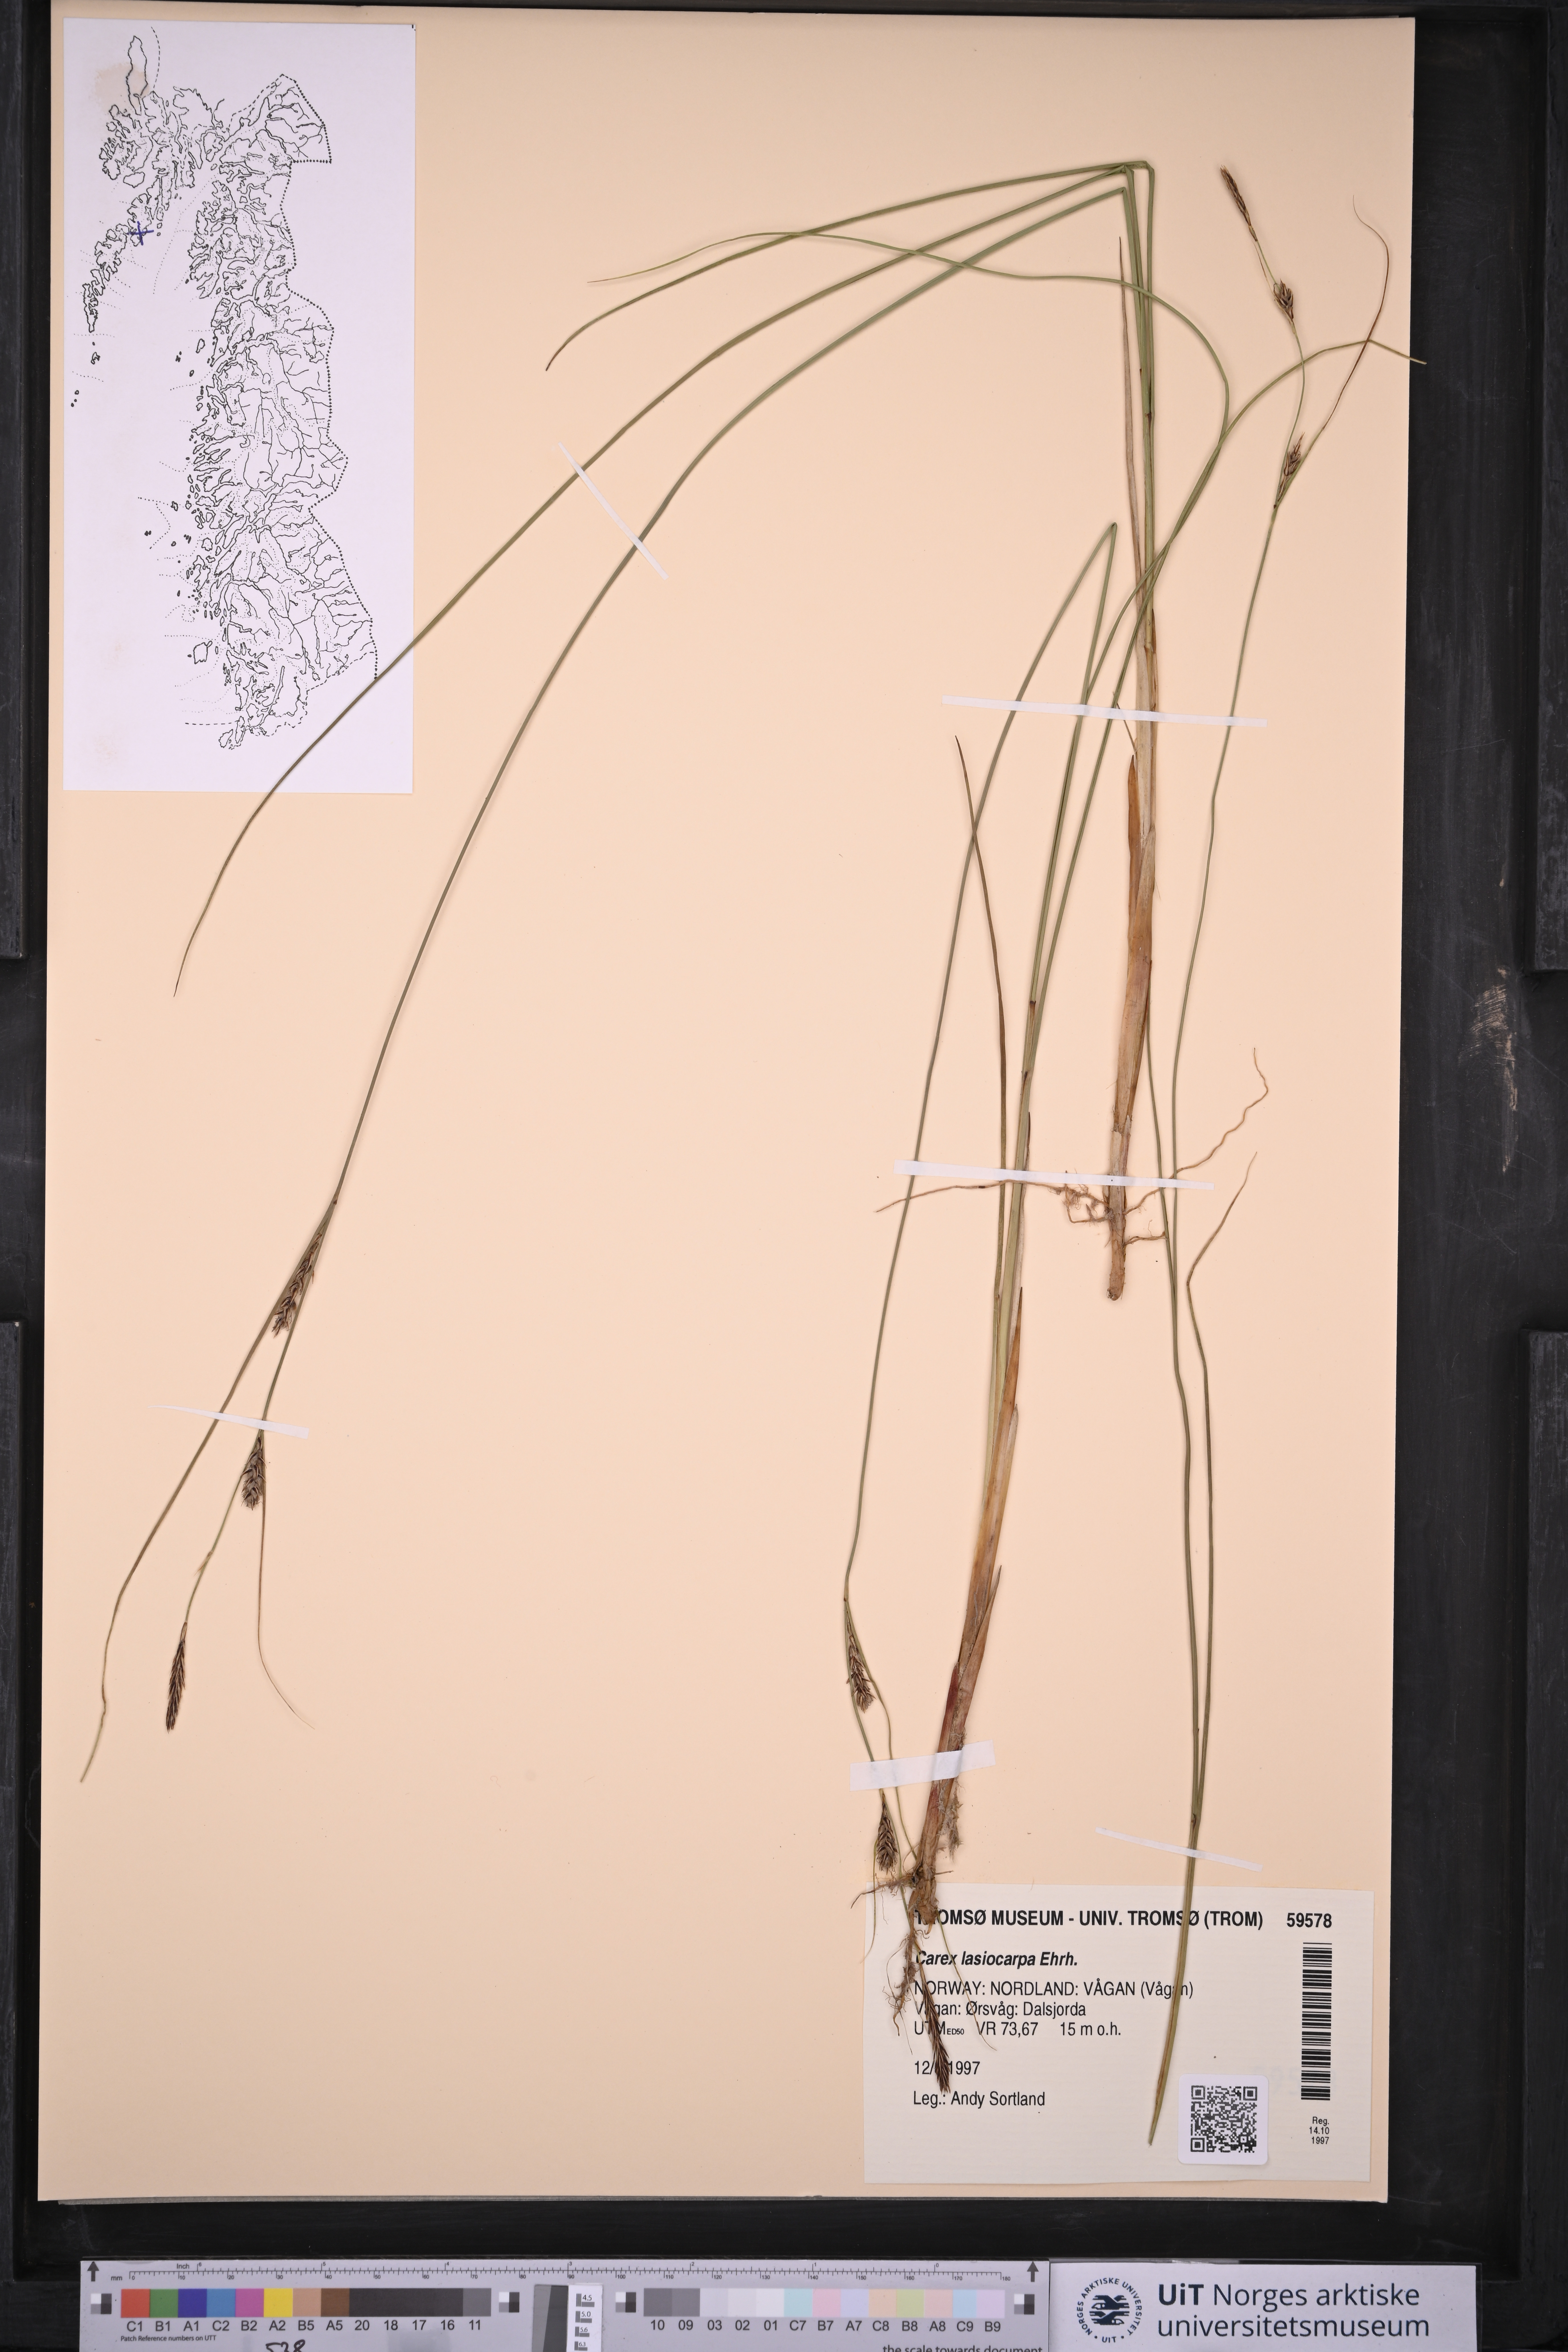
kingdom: Plantae
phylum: Tracheophyta
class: Liliopsida
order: Poales
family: Cyperaceae
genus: Carex
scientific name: Carex lasiocarpa
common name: Slender sedge
